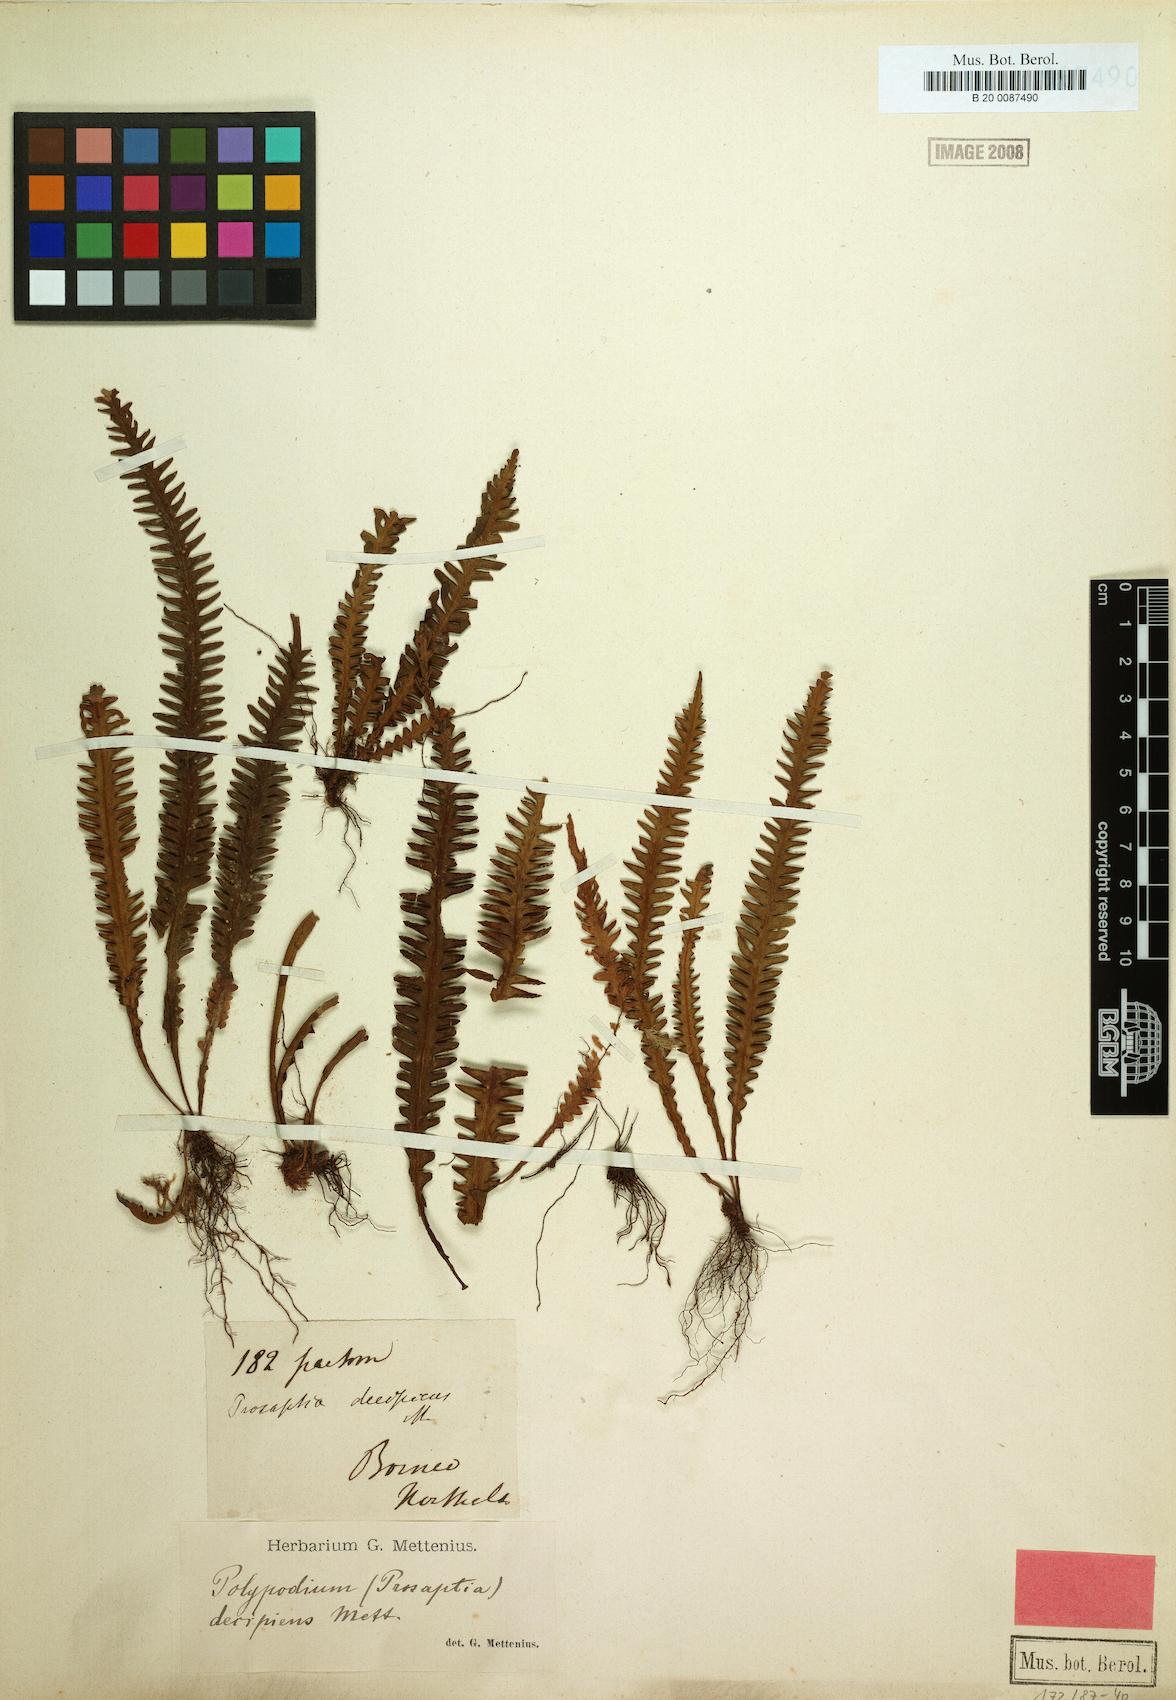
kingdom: Plantae
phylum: Tracheophyta
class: Polypodiopsida
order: Polypodiales
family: Polypodiaceae
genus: Prosaptia
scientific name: Prosaptia barathrophylla
